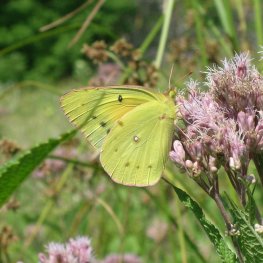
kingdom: Animalia
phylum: Arthropoda
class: Insecta
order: Lepidoptera
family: Pieridae
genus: Colias
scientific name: Colias eurytheme
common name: Orange Sulphur
